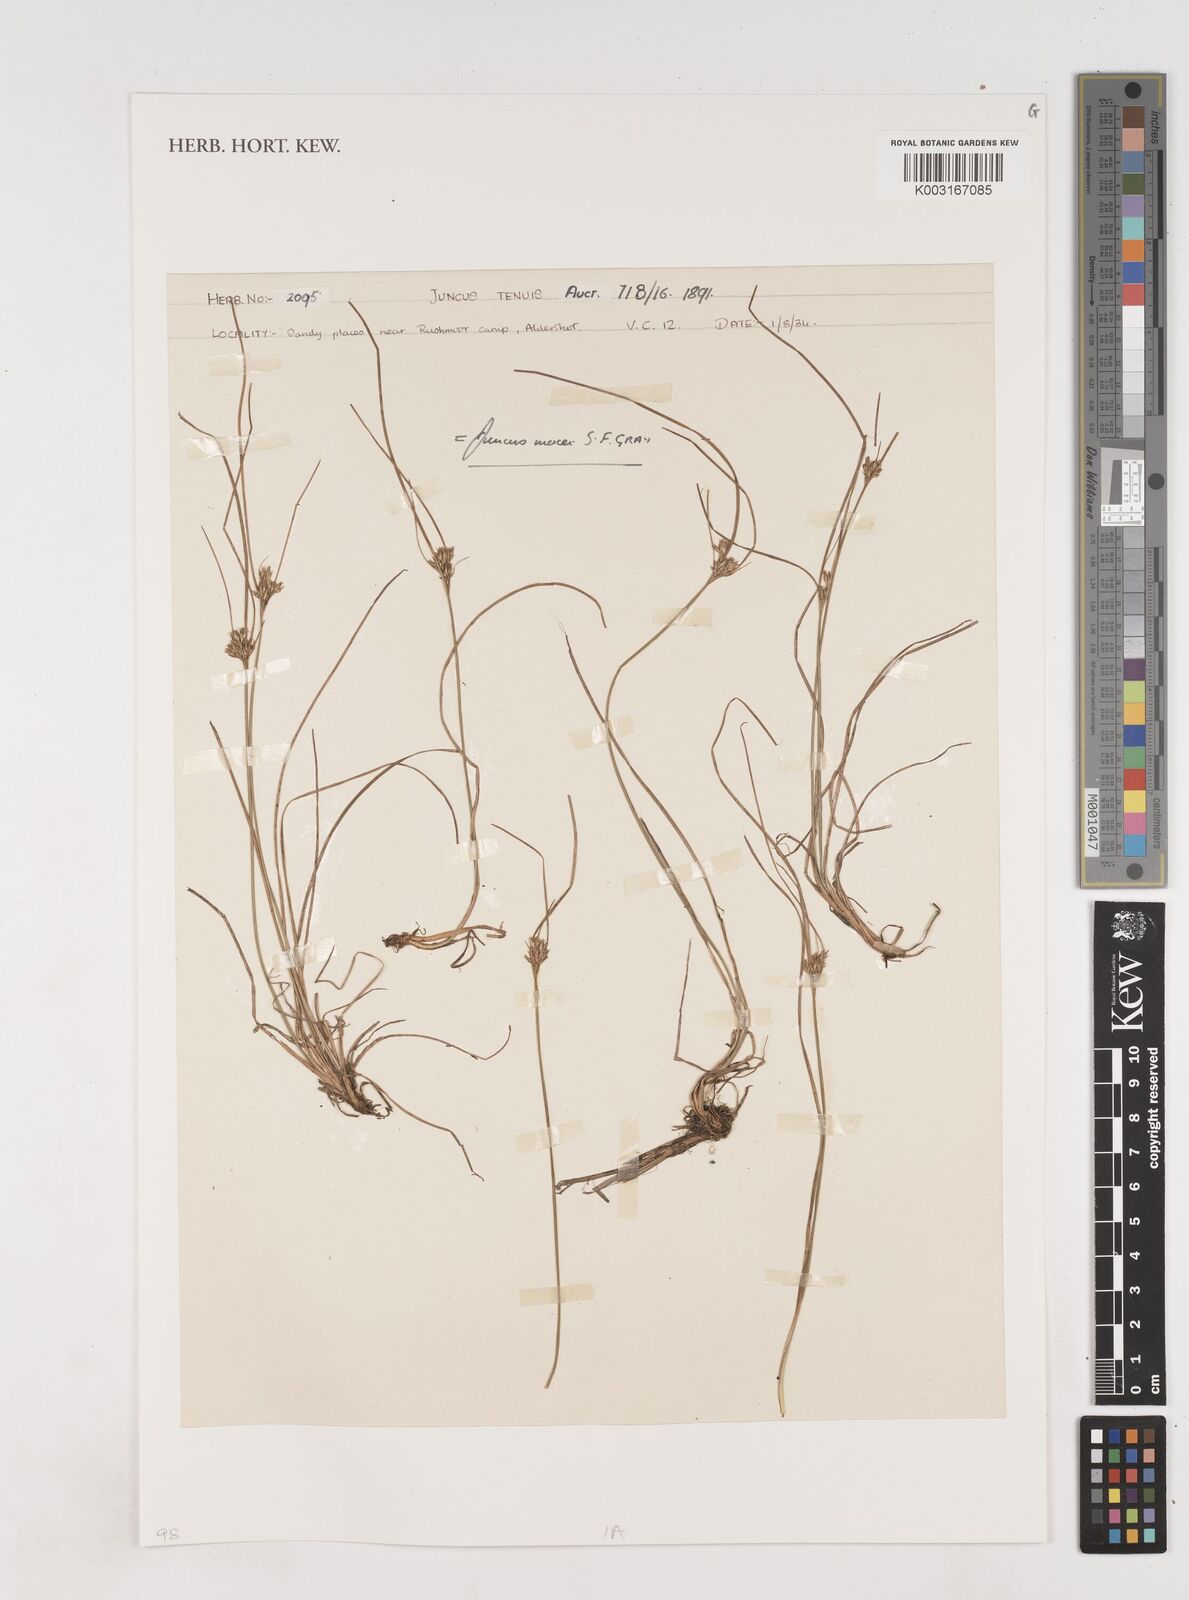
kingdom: Plantae
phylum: Tracheophyta
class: Liliopsida
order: Poales
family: Juncaceae
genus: Juncus
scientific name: Juncus tenuis
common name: Slender rush
